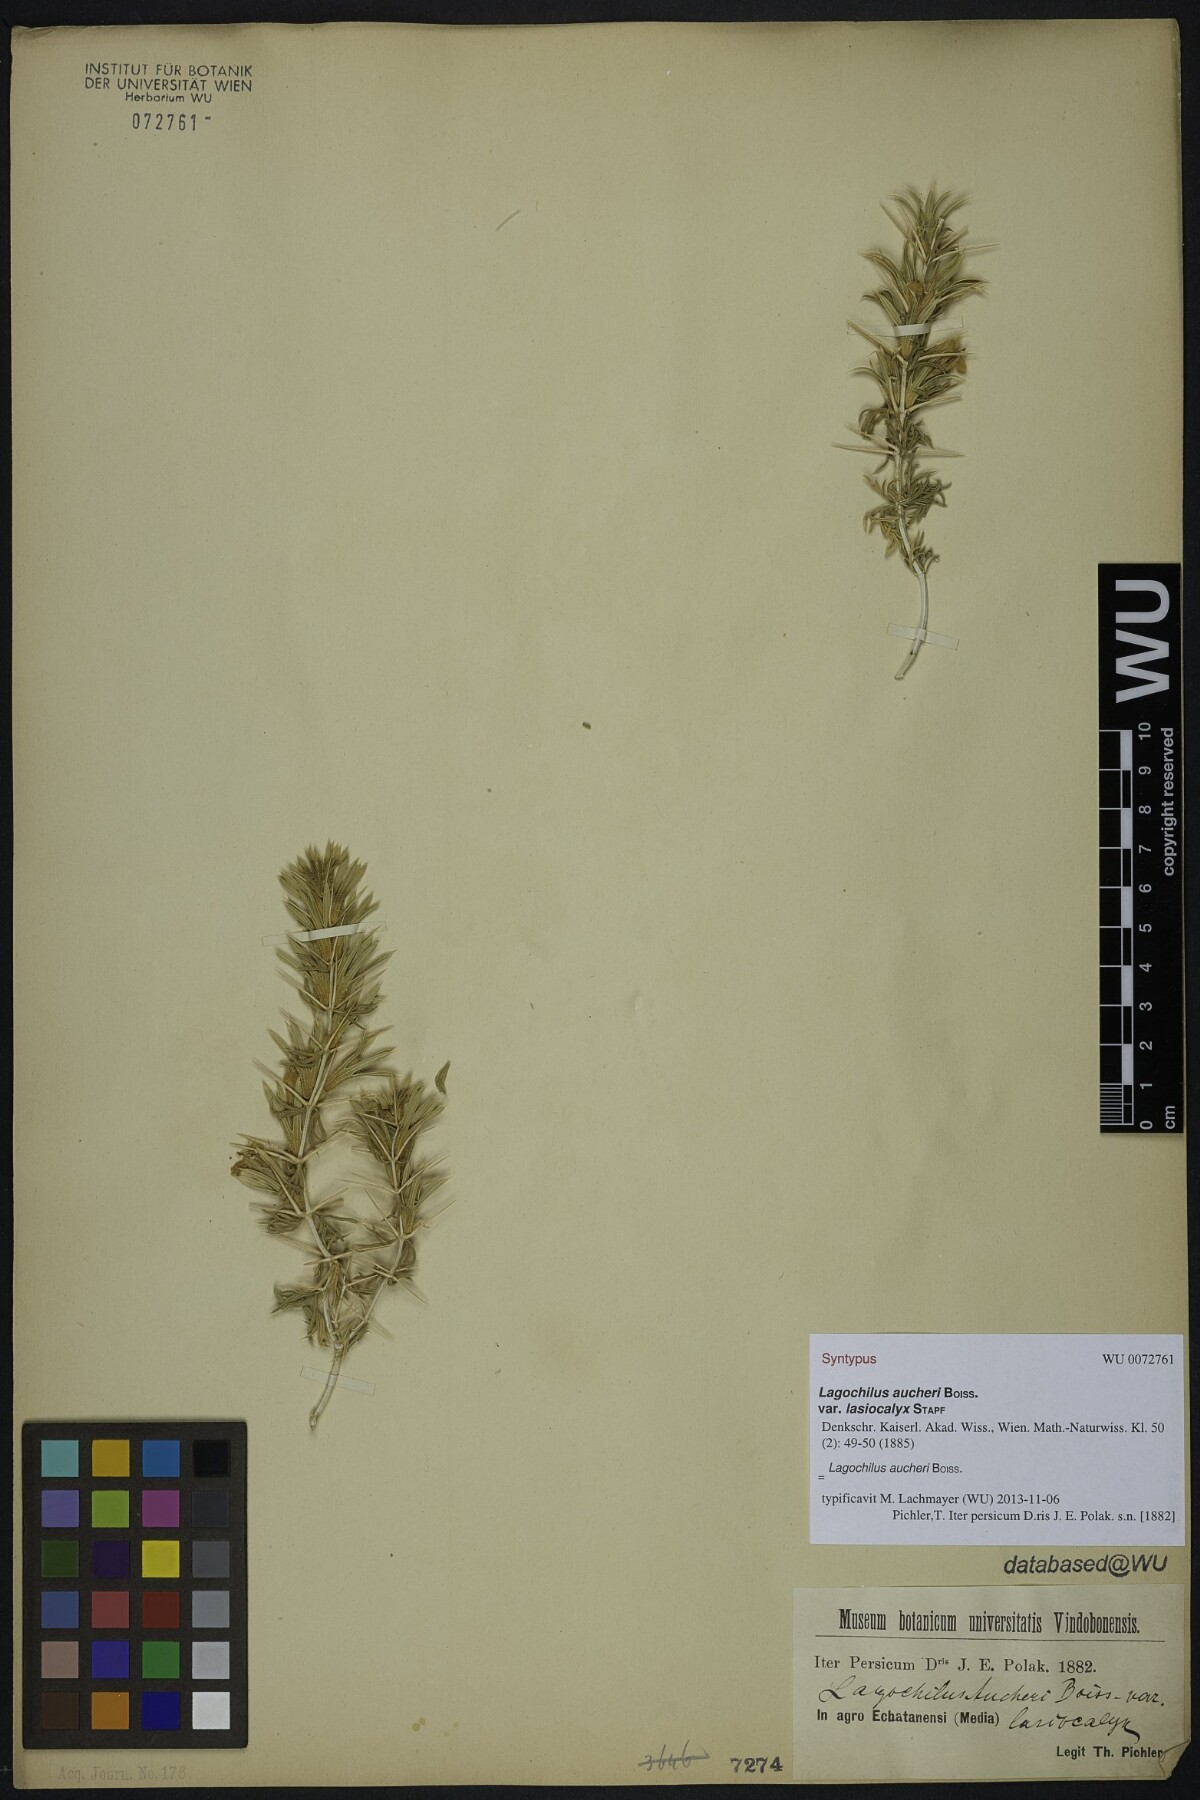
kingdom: Plantae
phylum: Tracheophyta
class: Magnoliopsida
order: Lamiales
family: Lamiaceae
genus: Lagochilus
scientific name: Lagochilus aucheri
